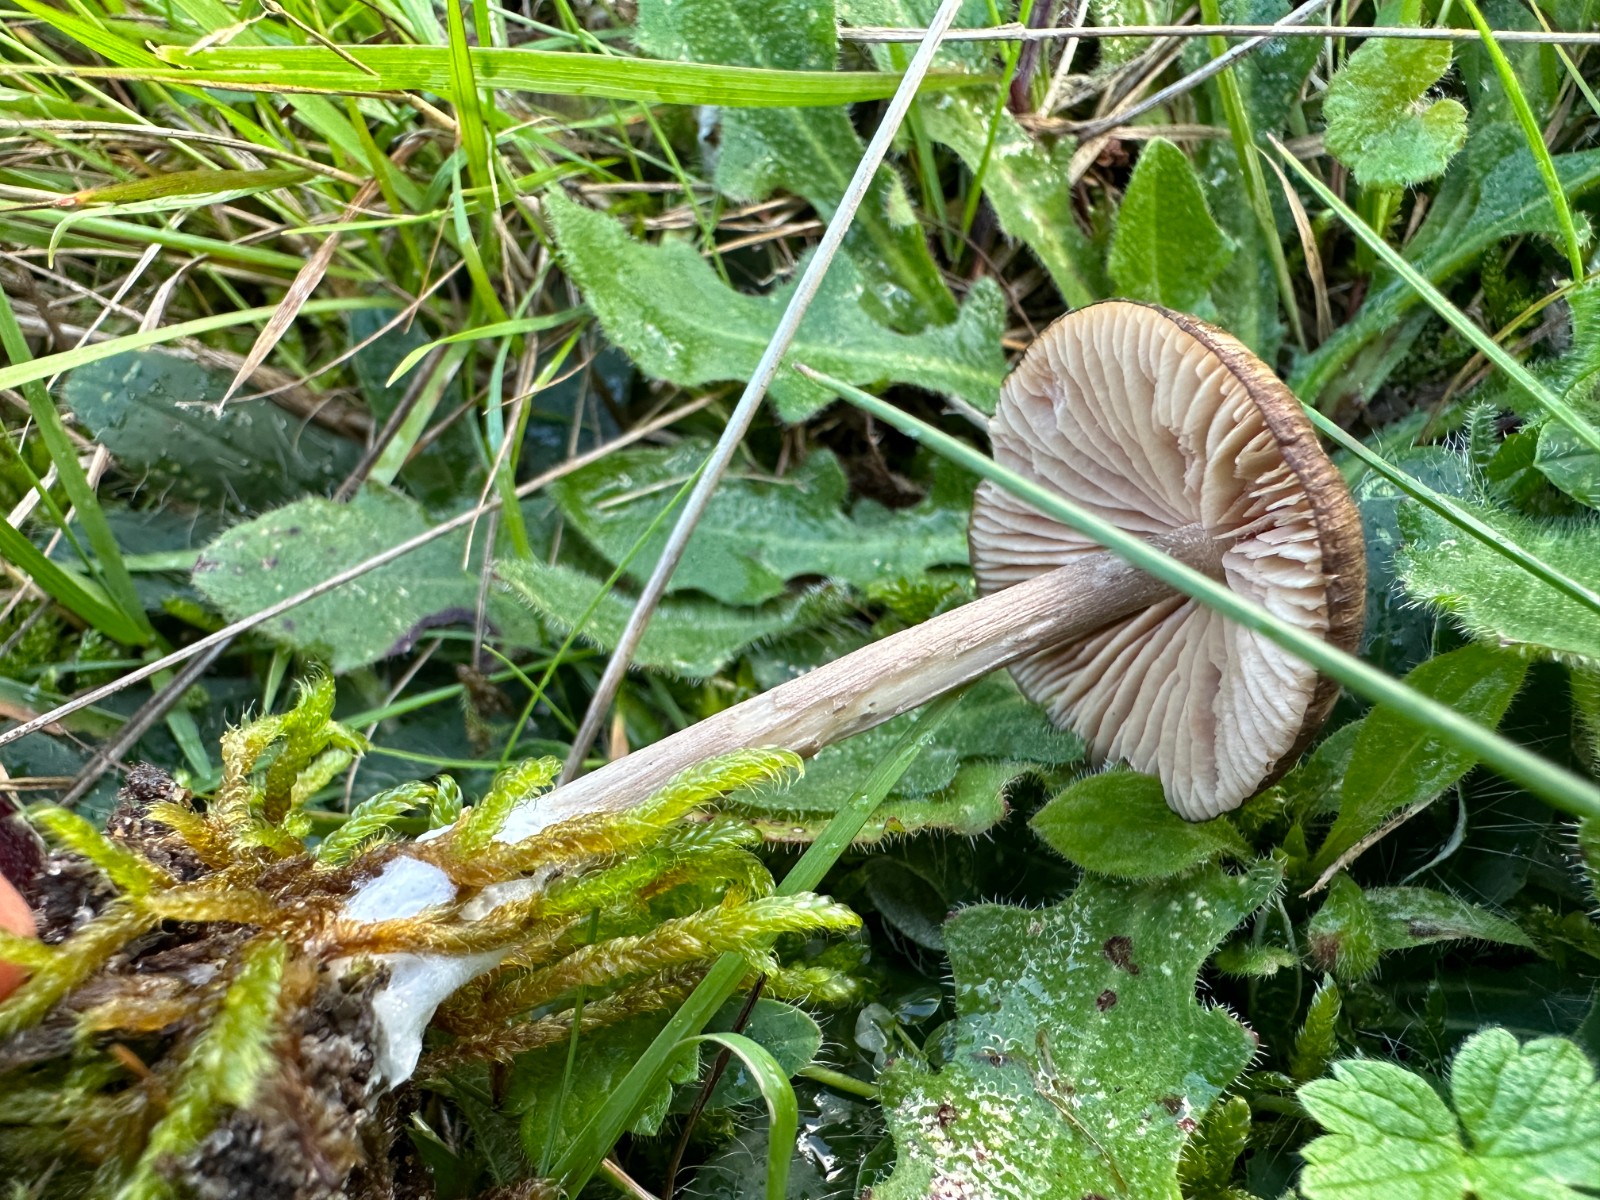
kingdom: Fungi
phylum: Basidiomycota
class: Agaricomycetes
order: Agaricales
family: Entolomataceae
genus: Entoloma
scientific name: Entoloma
